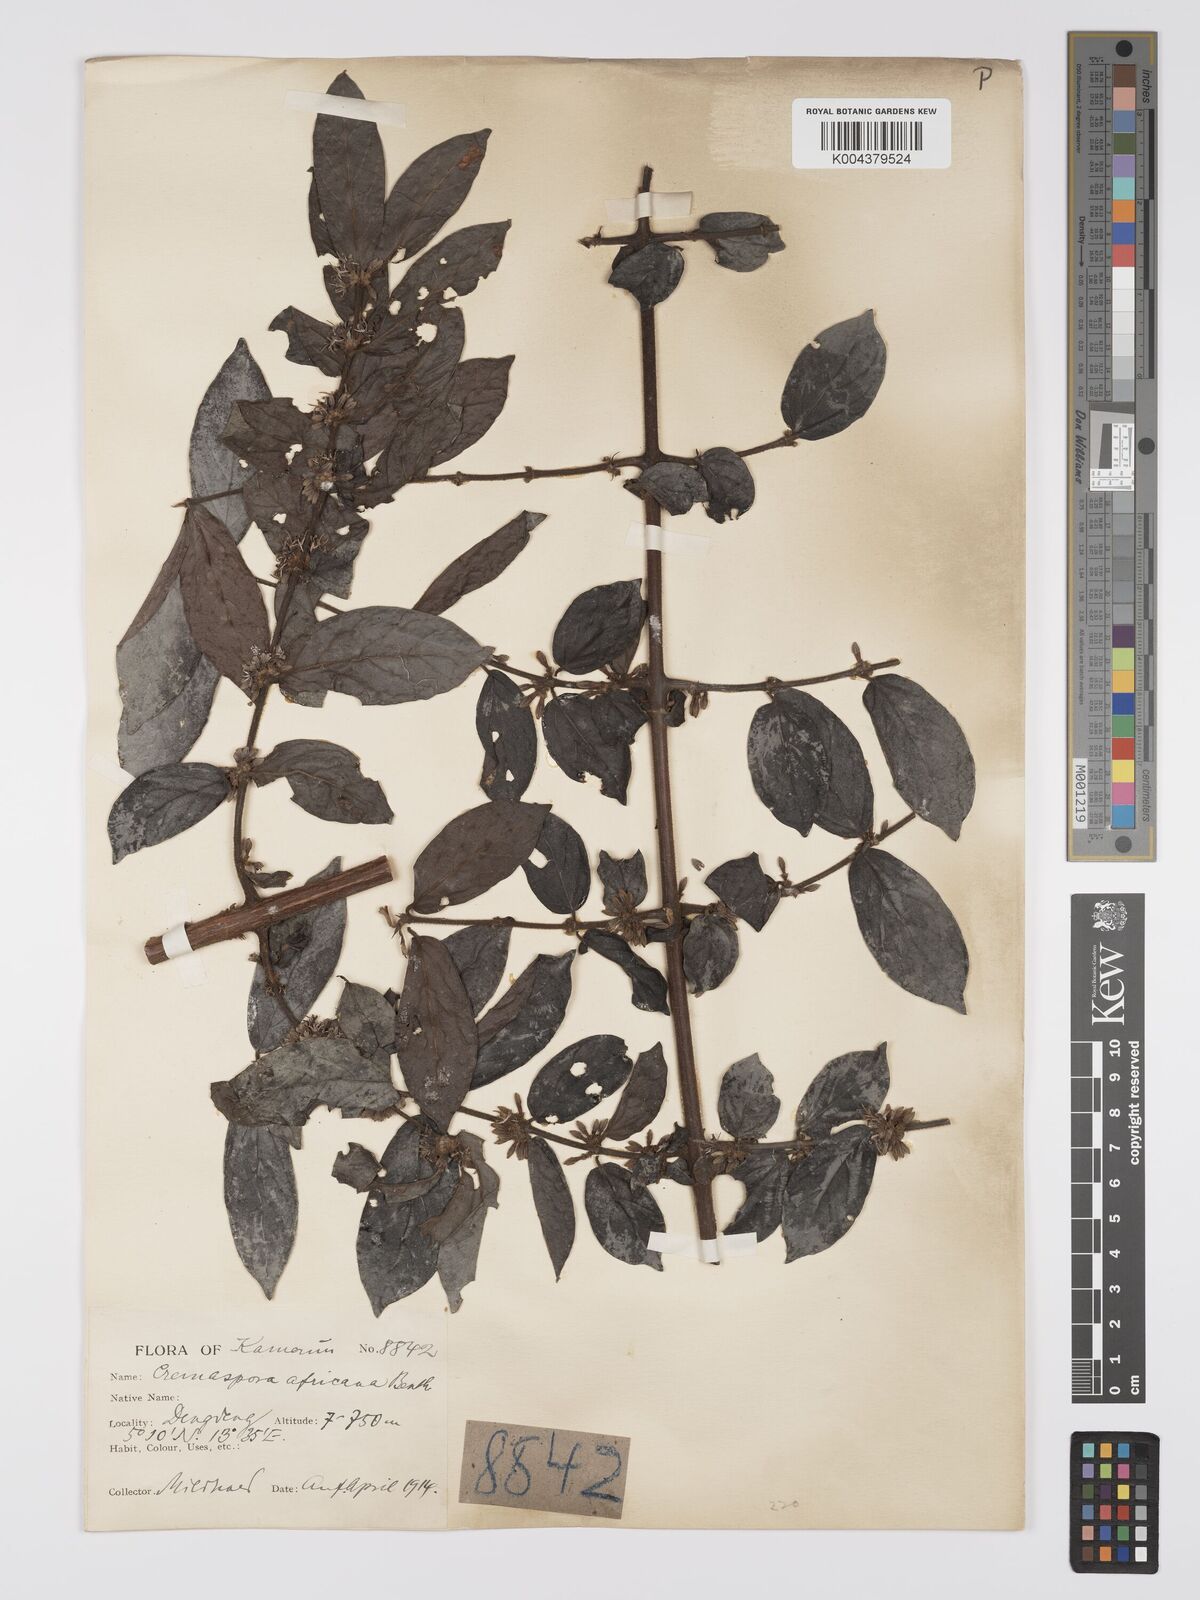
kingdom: Plantae
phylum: Tracheophyta
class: Magnoliopsida
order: Gentianales
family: Rubiaceae
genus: Cremaspora
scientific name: Cremaspora triflora
